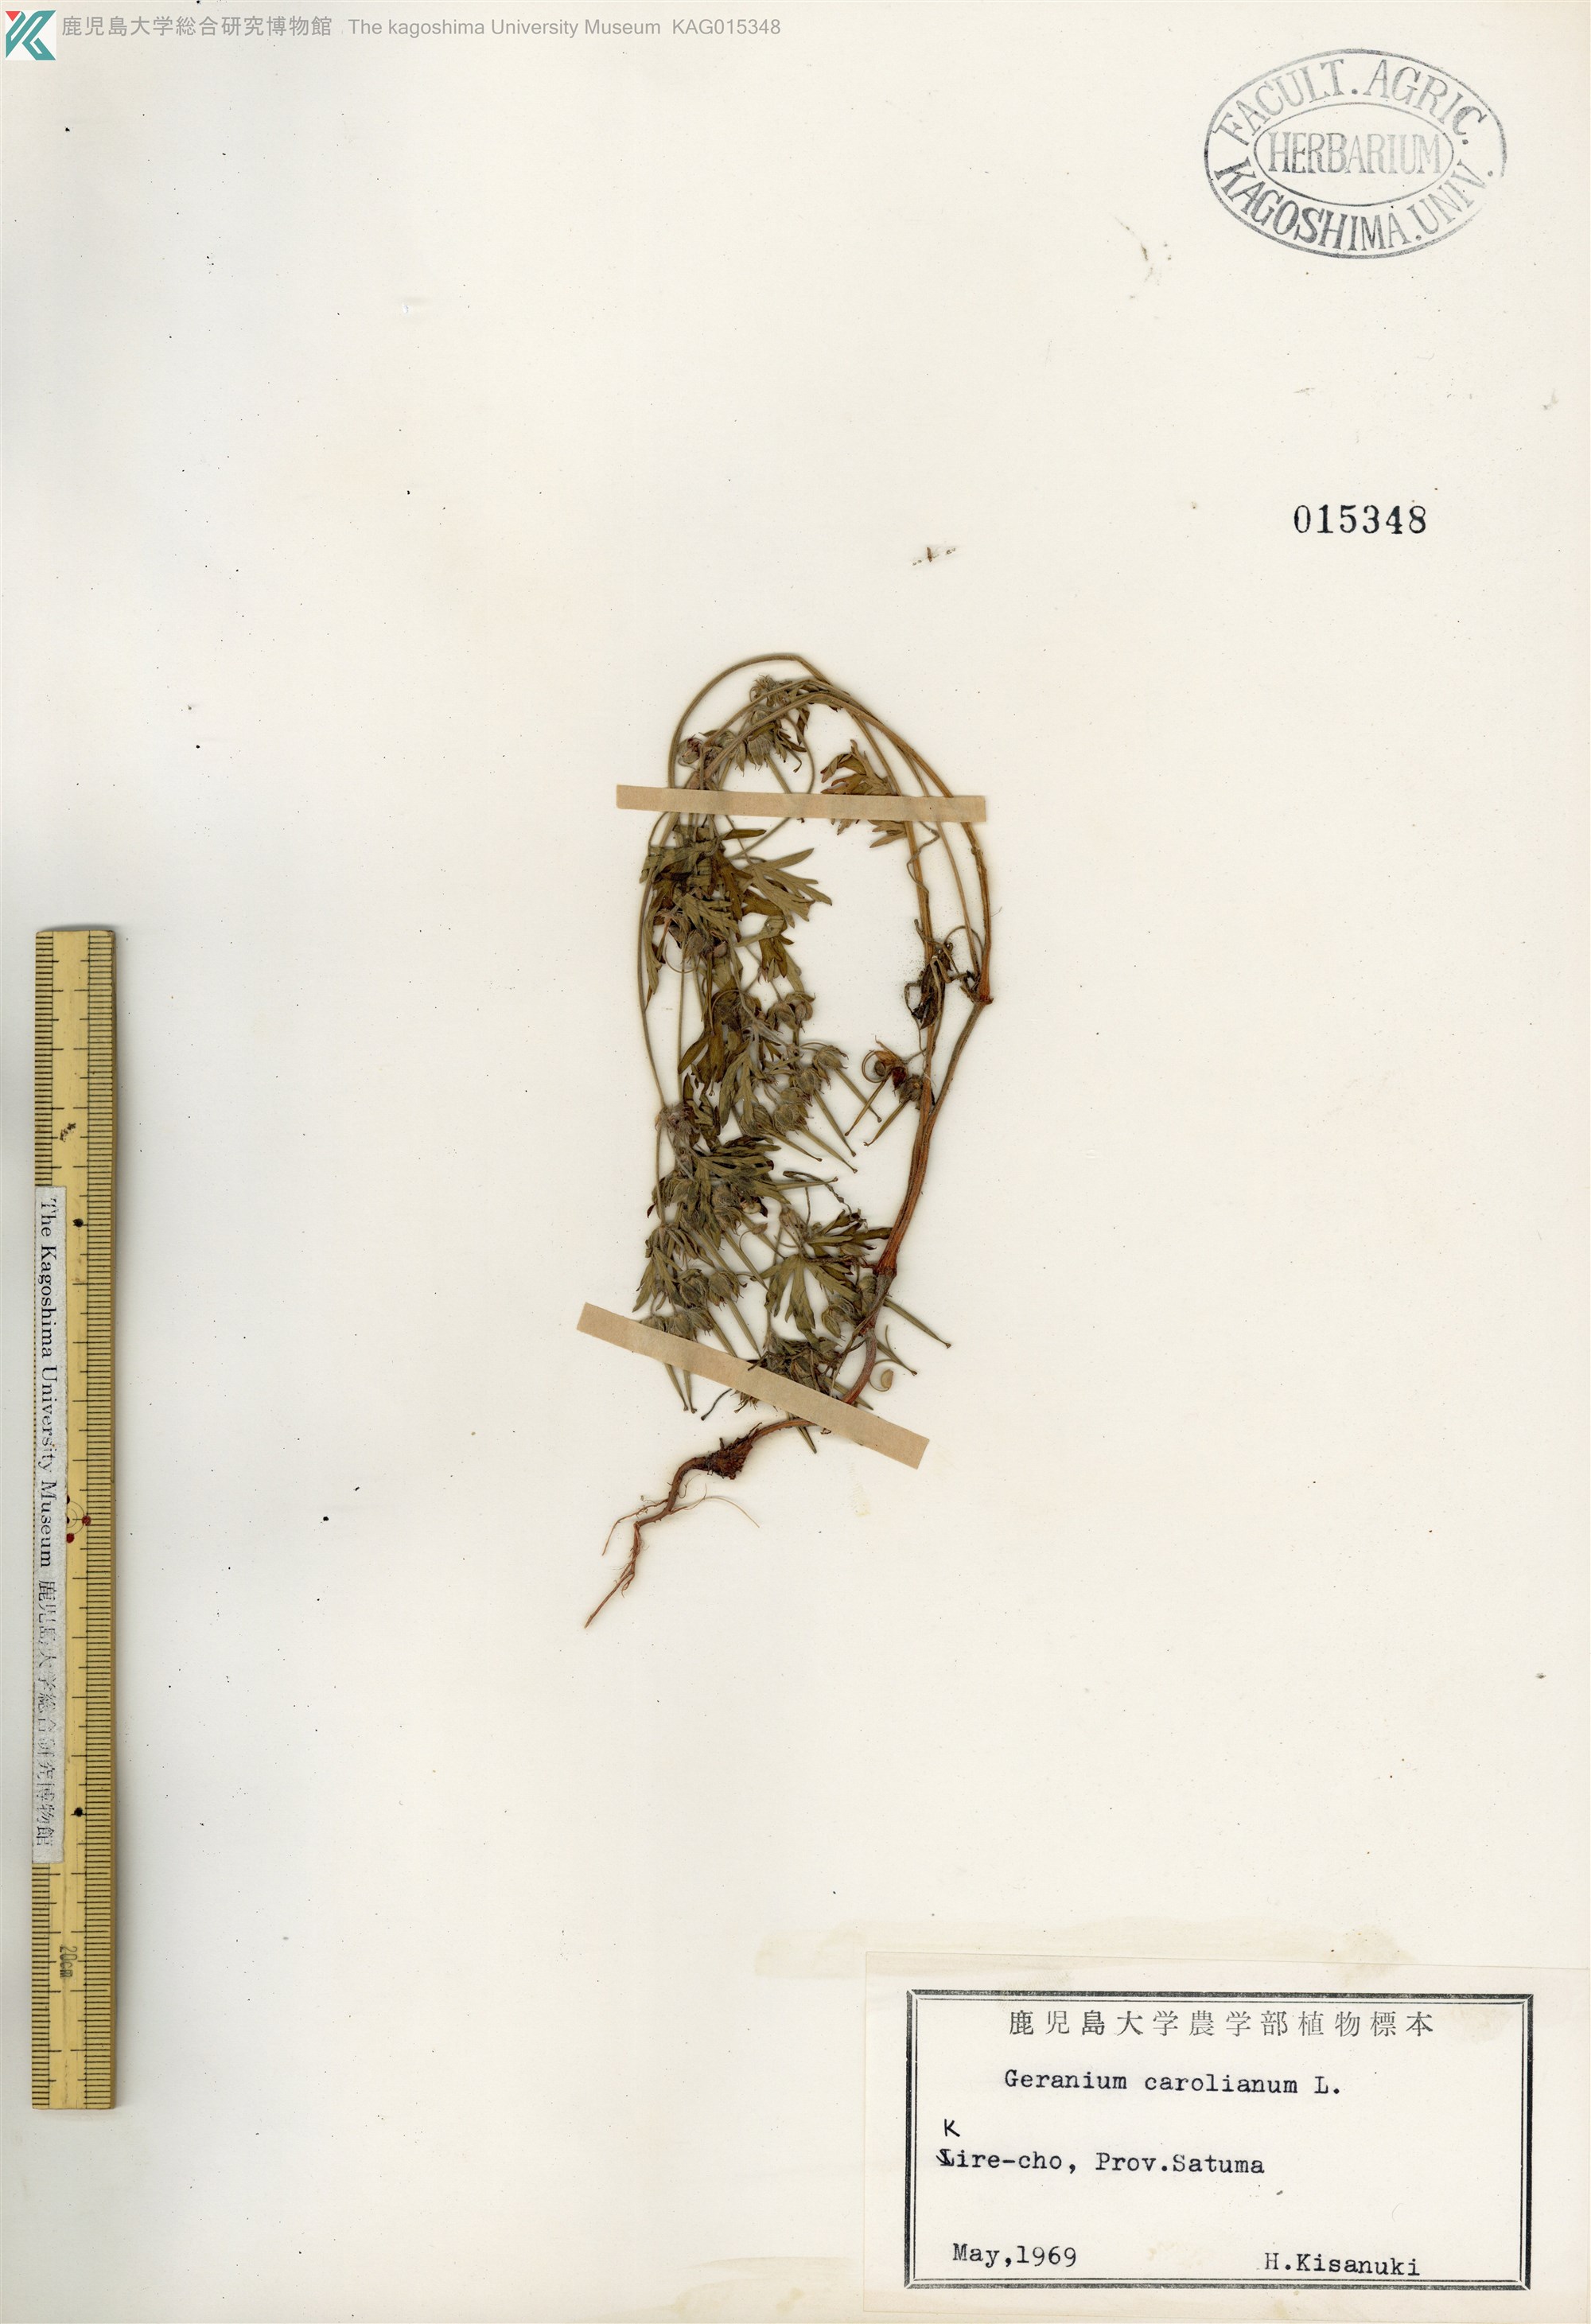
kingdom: Plantae
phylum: Tracheophyta
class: Magnoliopsida
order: Geraniales
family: Geraniaceae
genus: Geranium
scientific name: Geranium carolinianum
